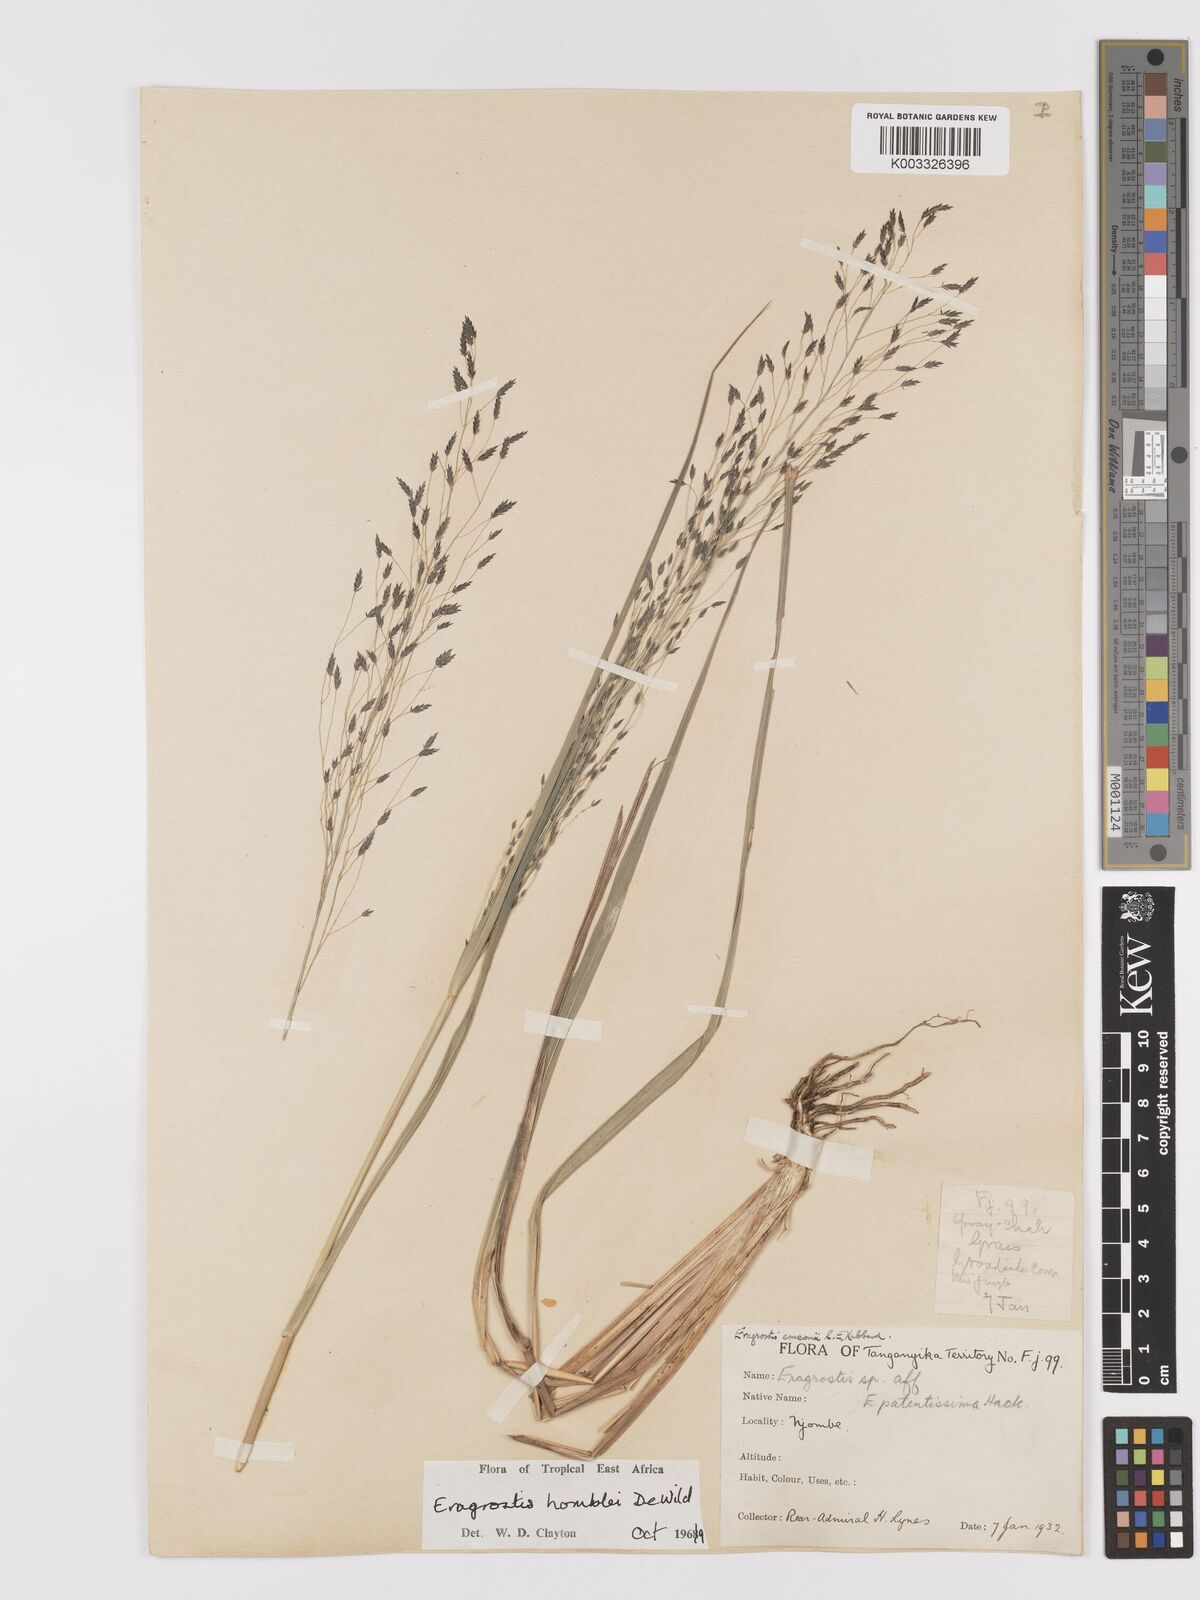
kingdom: Plantae
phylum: Tracheophyta
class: Liliopsida
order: Poales
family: Poaceae
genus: Eragrostis
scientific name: Eragrostis homblei
